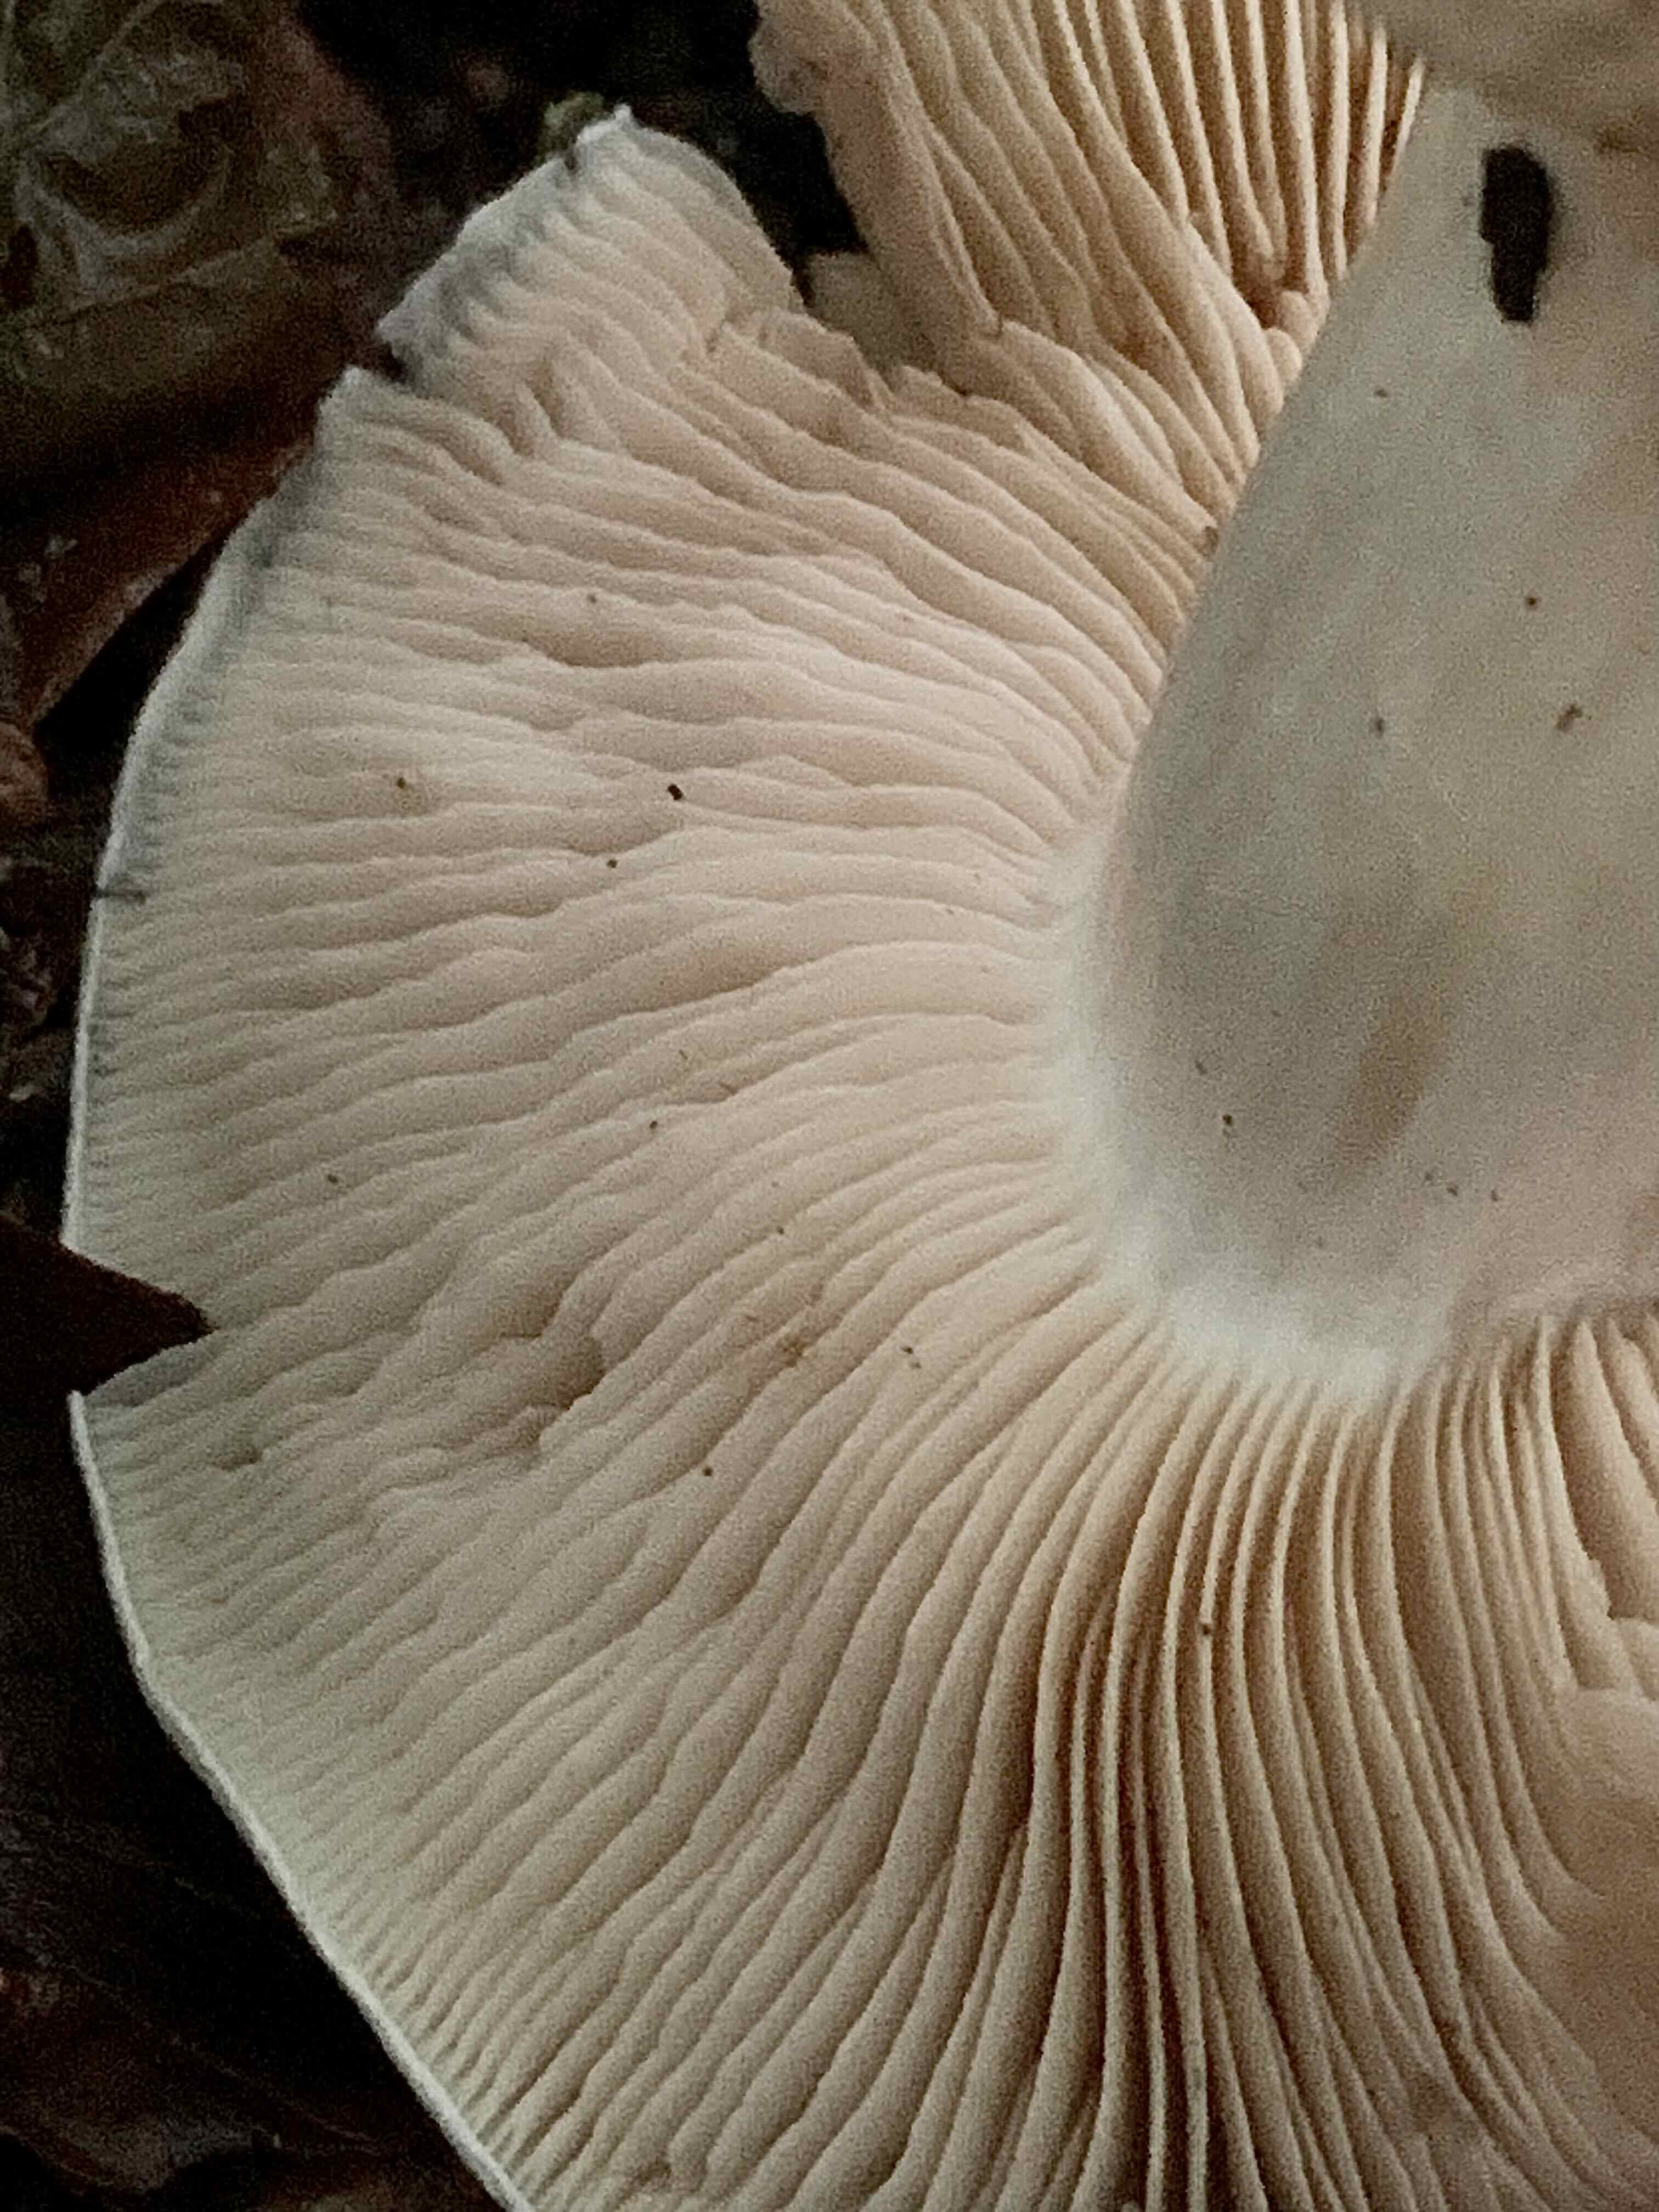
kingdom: Fungi
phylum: Basidiomycota
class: Agaricomycetes
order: Agaricales
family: Cortinariaceae
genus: Thaxterogaster
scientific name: Thaxterogaster barbatus
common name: elfenbens-slørhat
